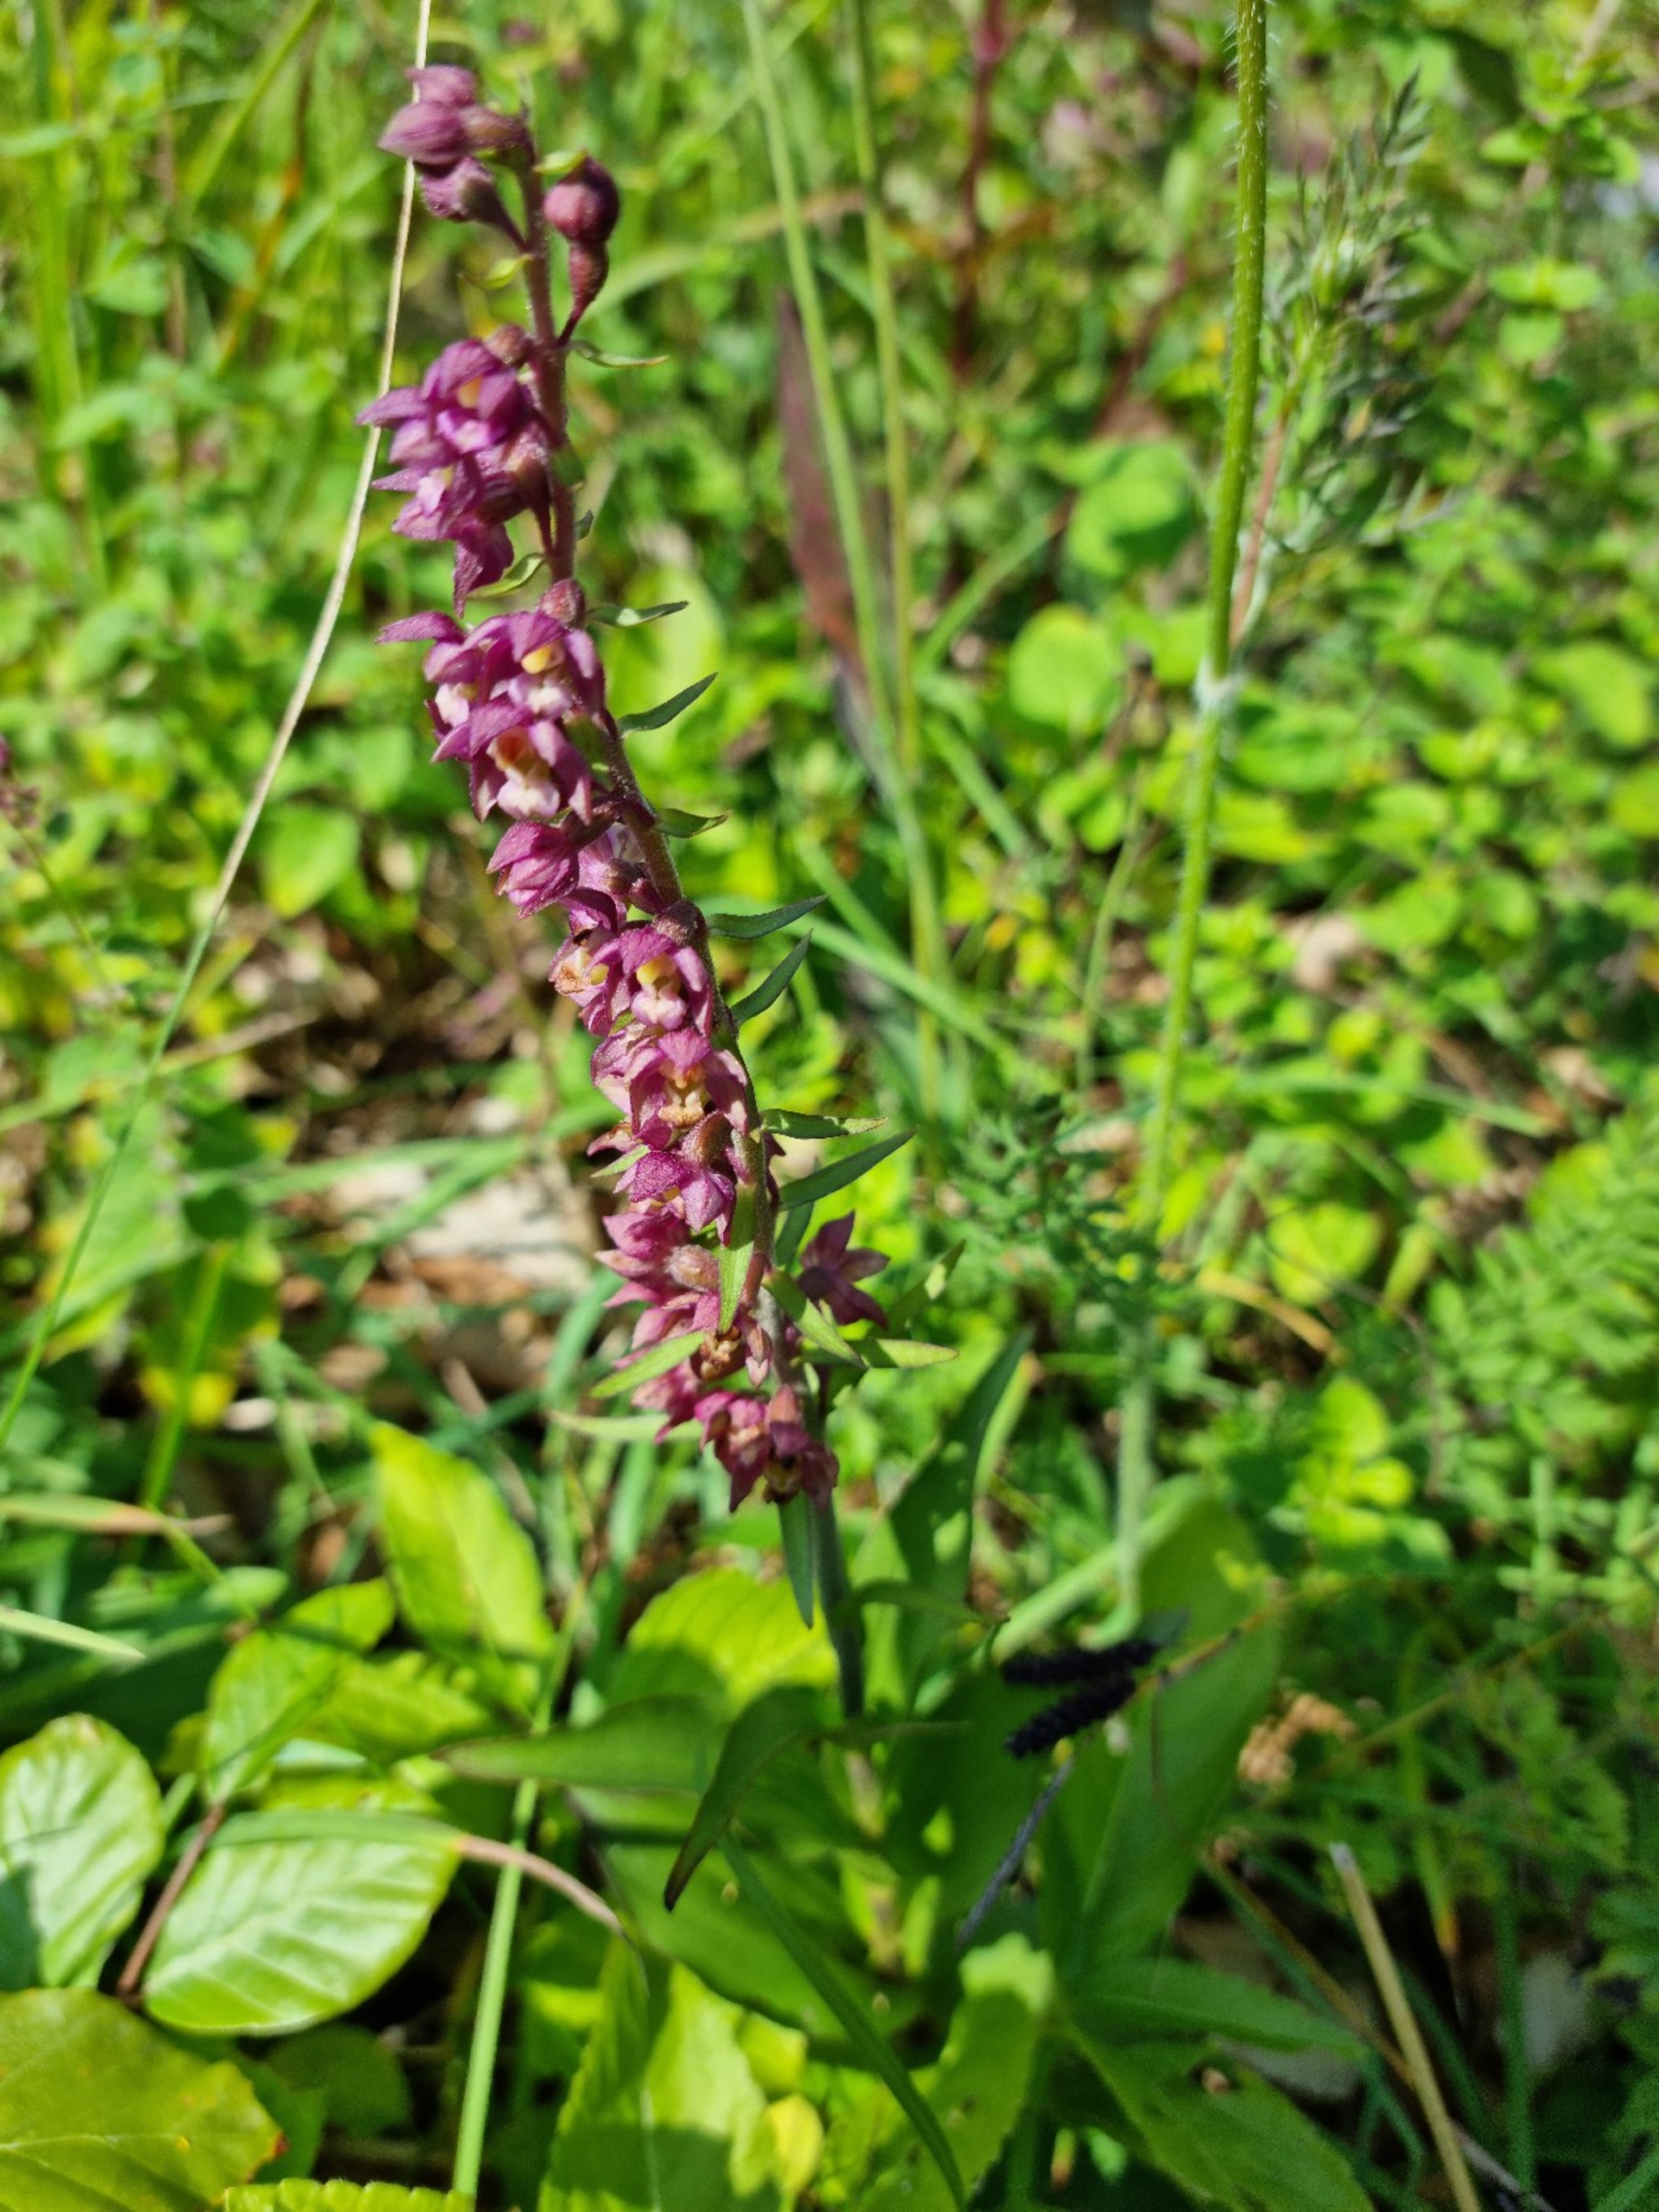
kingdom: Plantae
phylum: Tracheophyta
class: Liliopsida
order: Asparagales
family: Orchidaceae
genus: Epipactis
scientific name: Epipactis atrorubens
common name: Rød hullæbe
